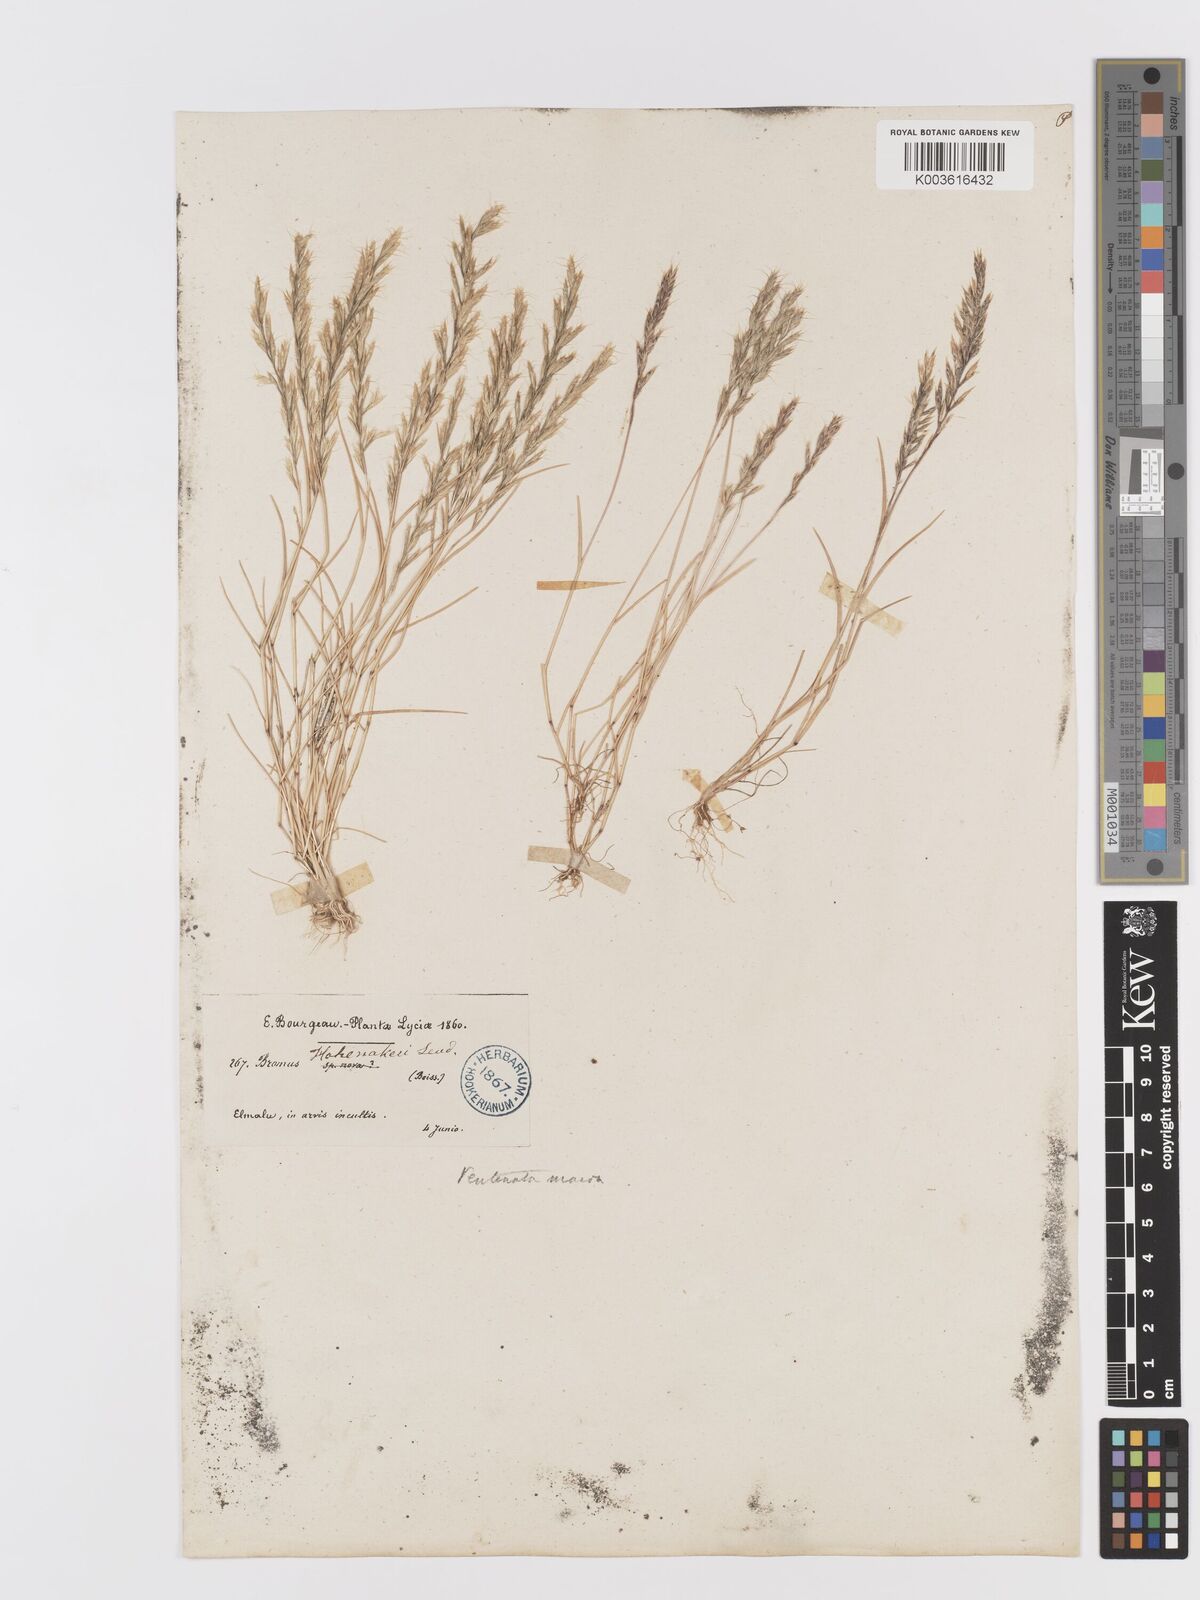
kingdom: Plantae
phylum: Tracheophyta
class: Liliopsida
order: Poales
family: Poaceae
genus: Ventenata
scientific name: Ventenata macra
